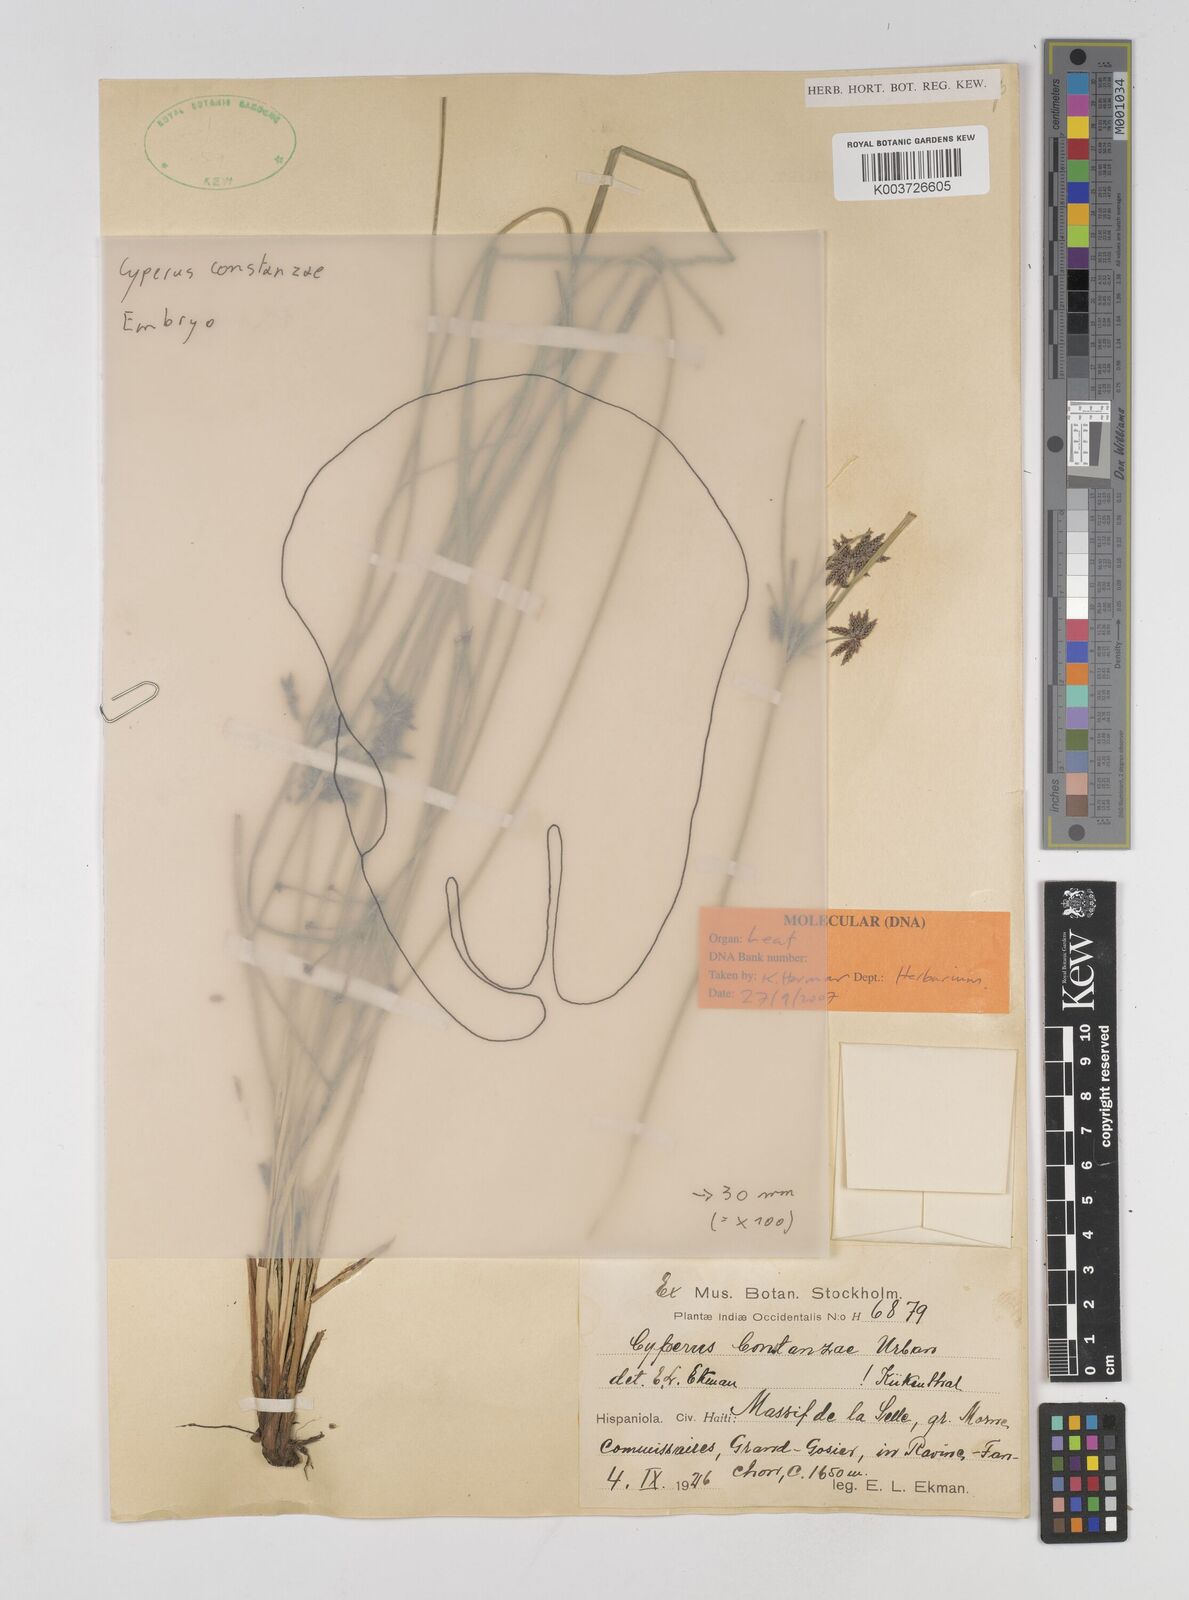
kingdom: Plantae
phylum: Tracheophyta
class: Liliopsida
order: Poales
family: Cyperaceae
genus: Cyperus
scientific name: Cyperus constanzae
